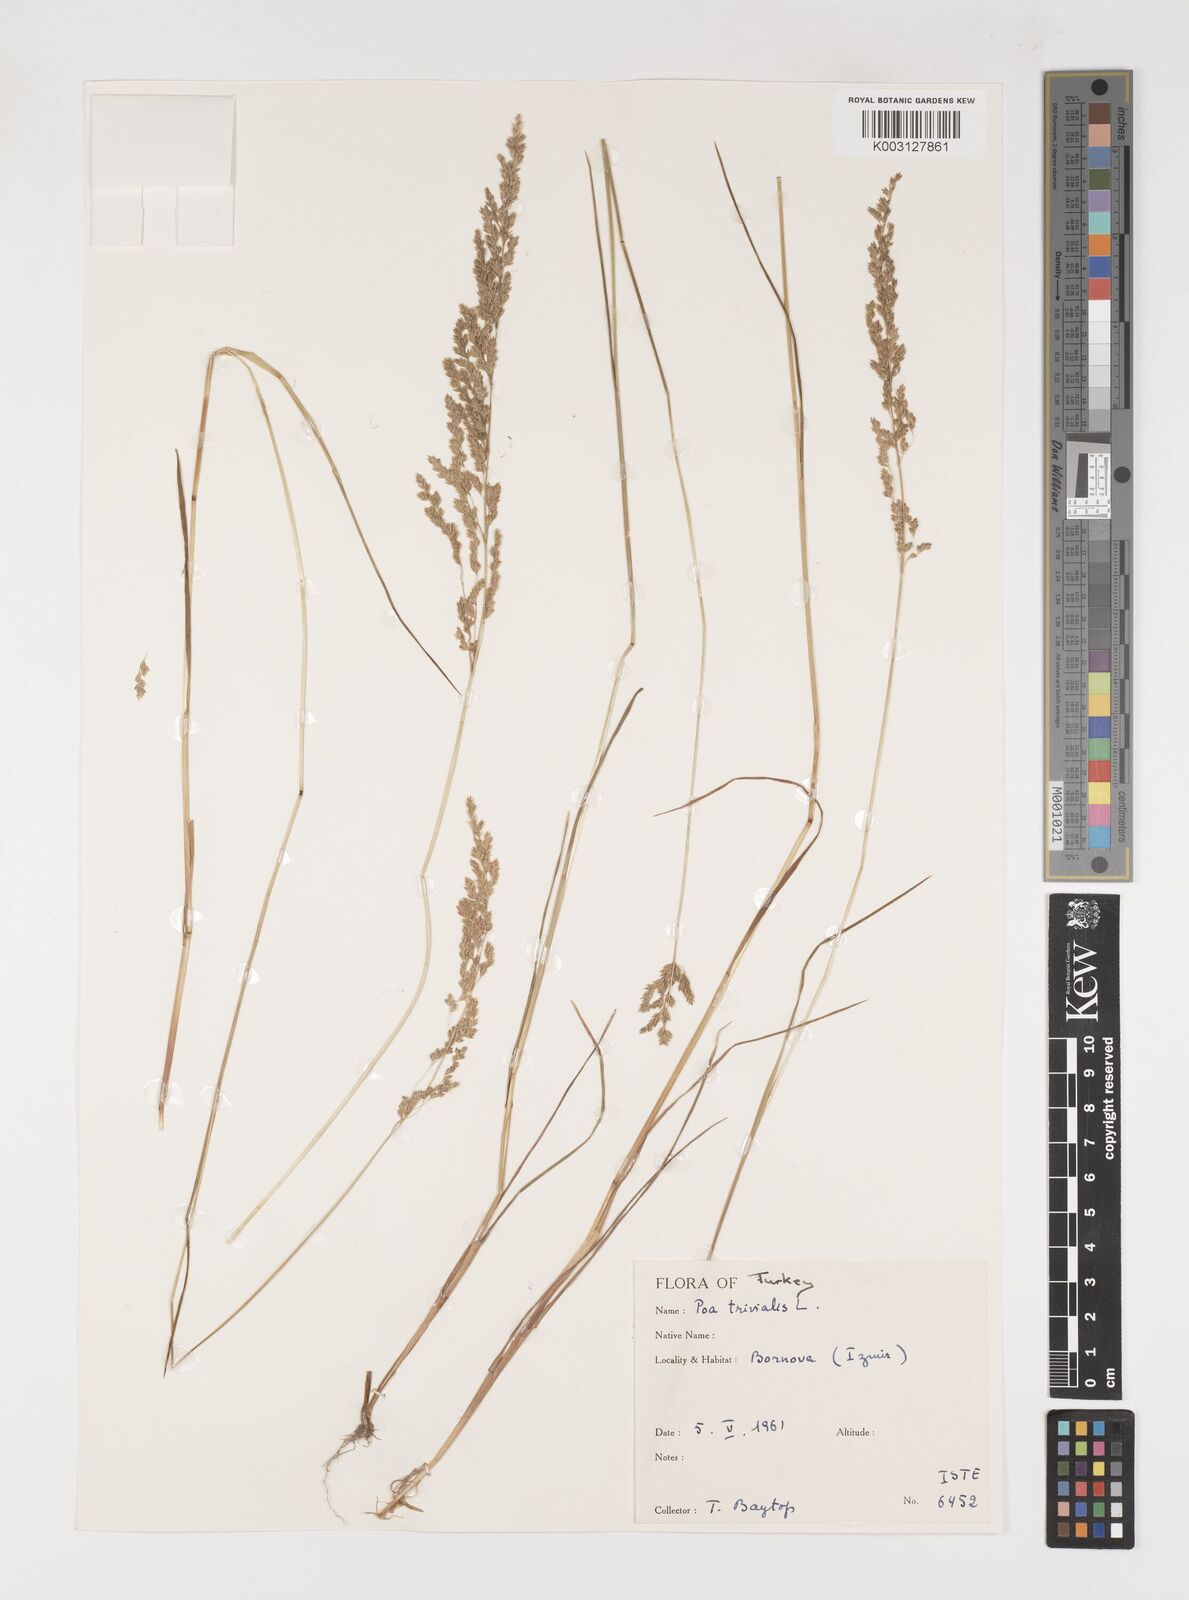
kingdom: Plantae
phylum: Tracheophyta
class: Liliopsida
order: Poales
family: Poaceae
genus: Poa
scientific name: Poa trivialis
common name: Rough bluegrass
